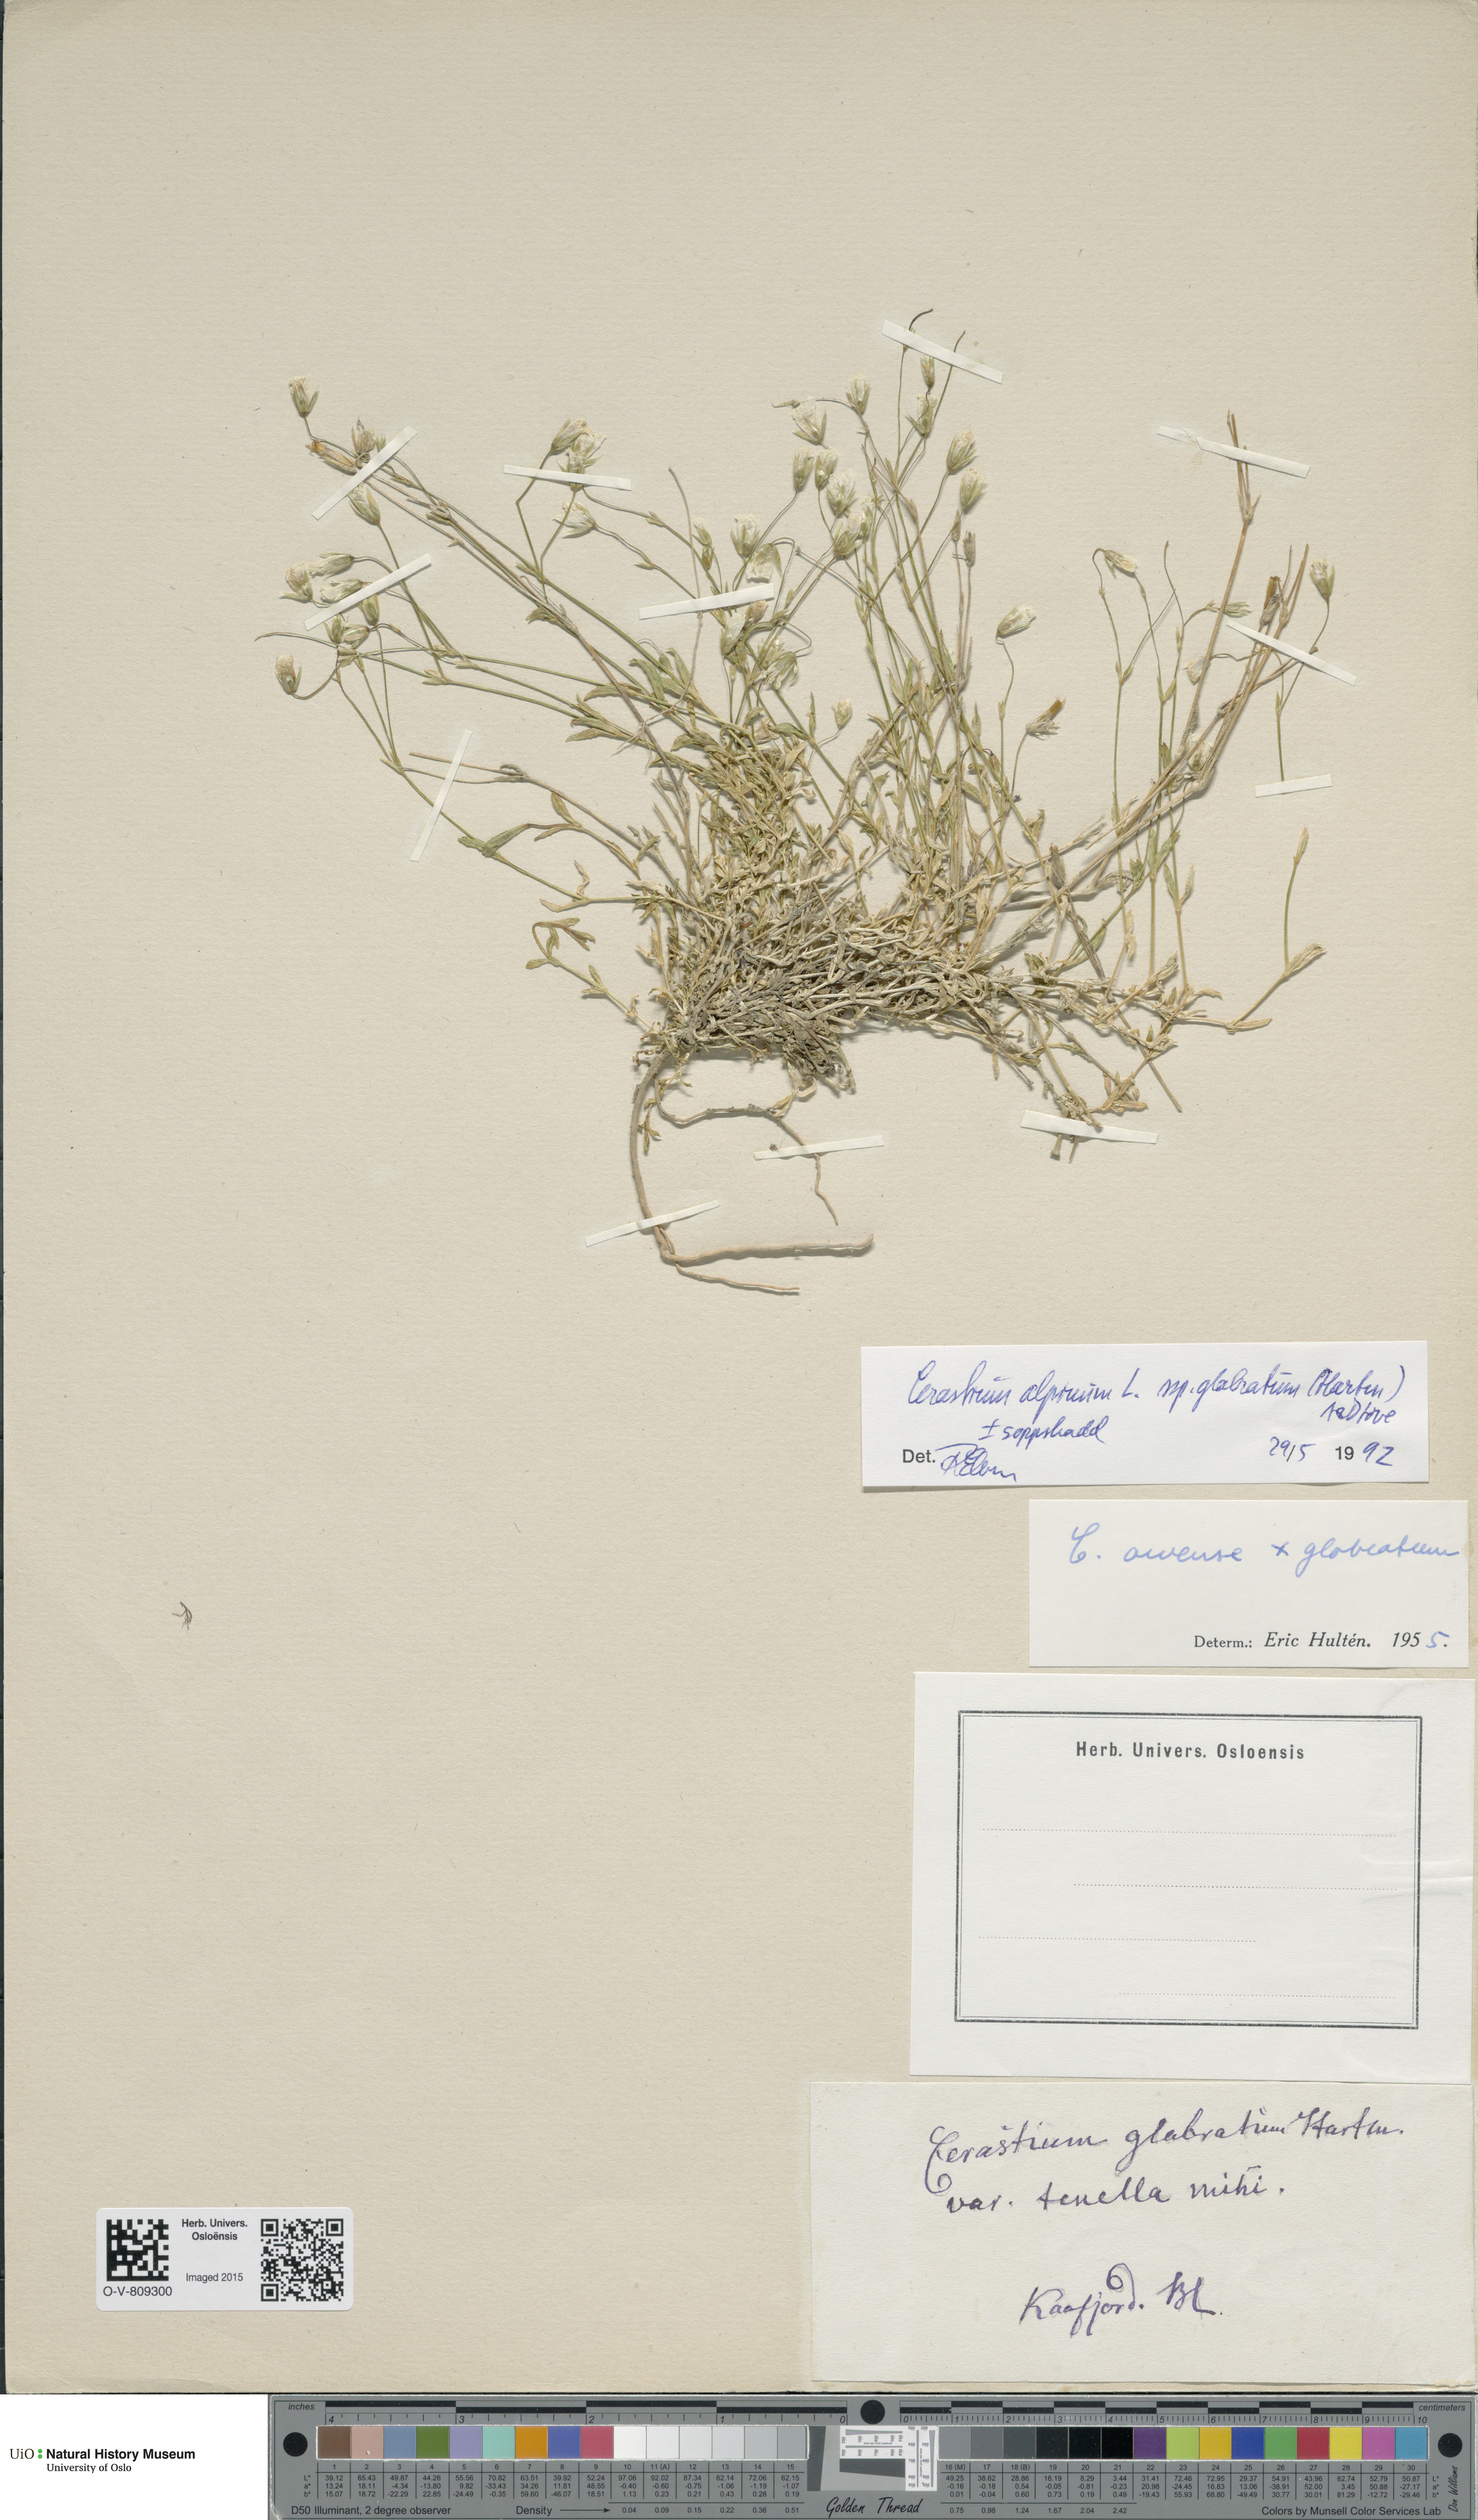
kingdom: Plantae
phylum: Tracheophyta
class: Magnoliopsida
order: Caryophyllales
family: Caryophyllaceae
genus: Cerastium
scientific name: Cerastium alpinum
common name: Alpine mouse-ear
